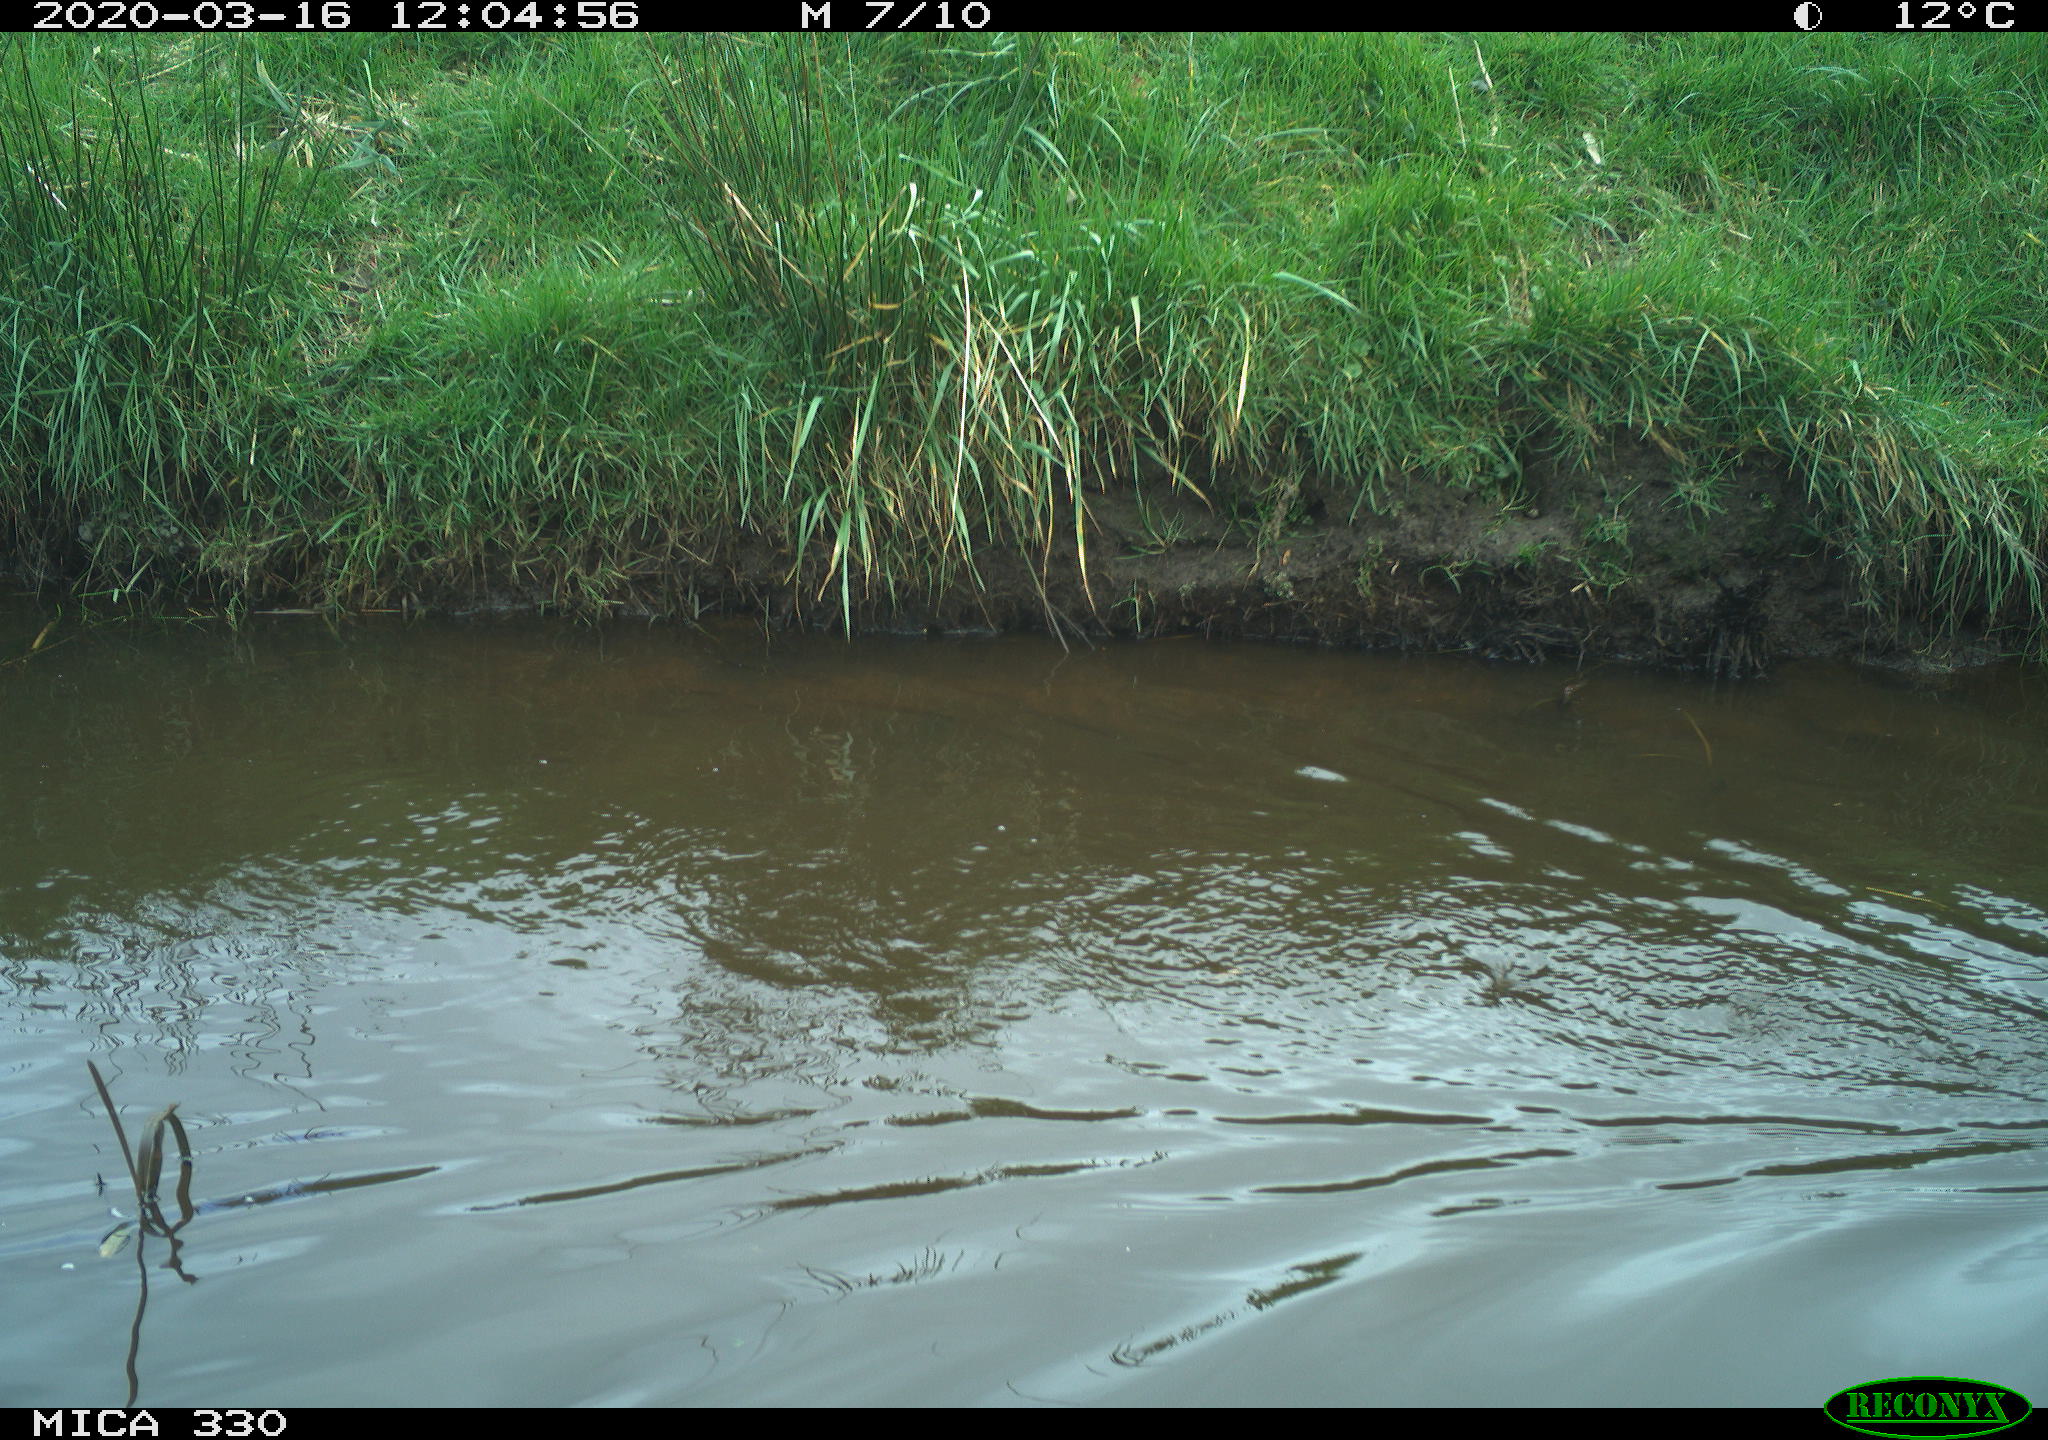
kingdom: Animalia
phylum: Chordata
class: Aves
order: Anseriformes
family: Anatidae
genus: Anas
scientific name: Anas platyrhynchos
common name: Mallard
